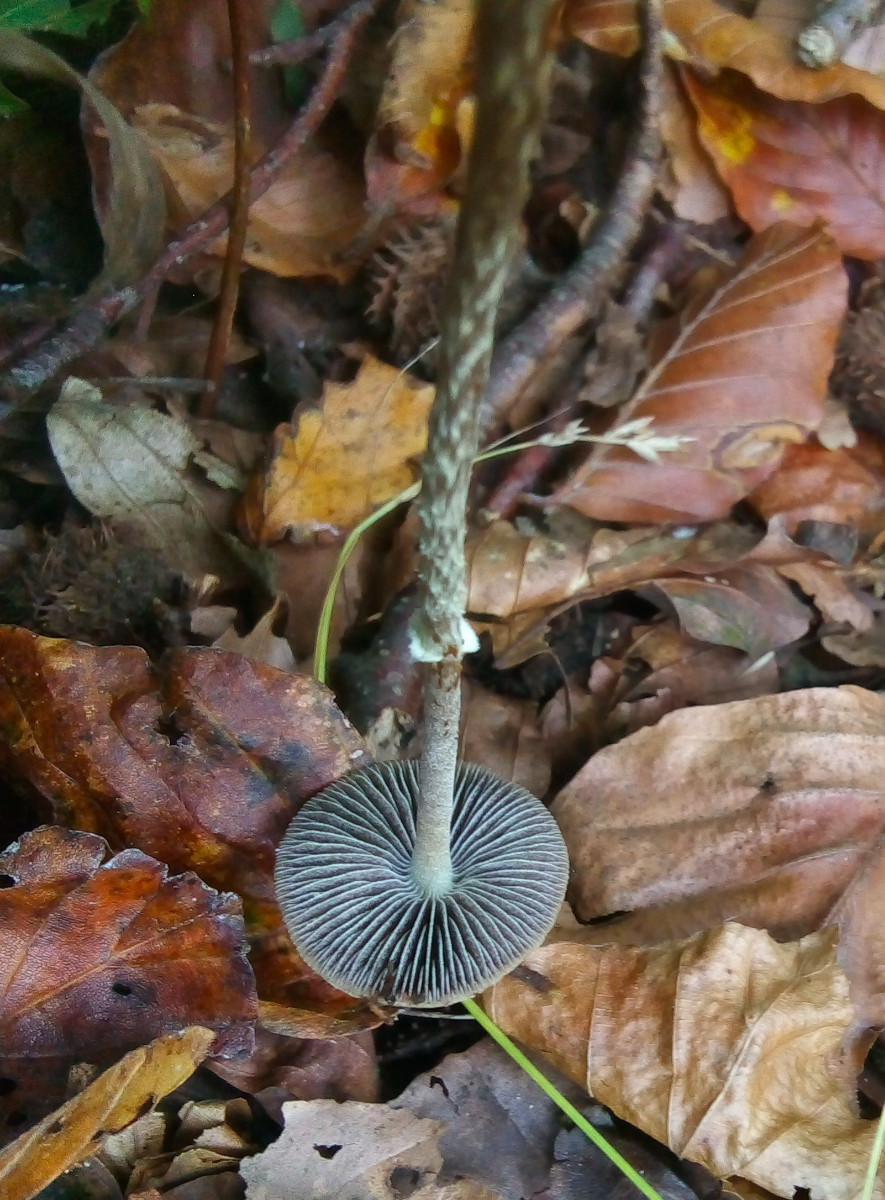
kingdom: Fungi
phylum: Basidiomycota
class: Agaricomycetes
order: Agaricales
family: Strophariaceae
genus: Leratiomyces
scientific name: Leratiomyces squamosus
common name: skællet bredblad
